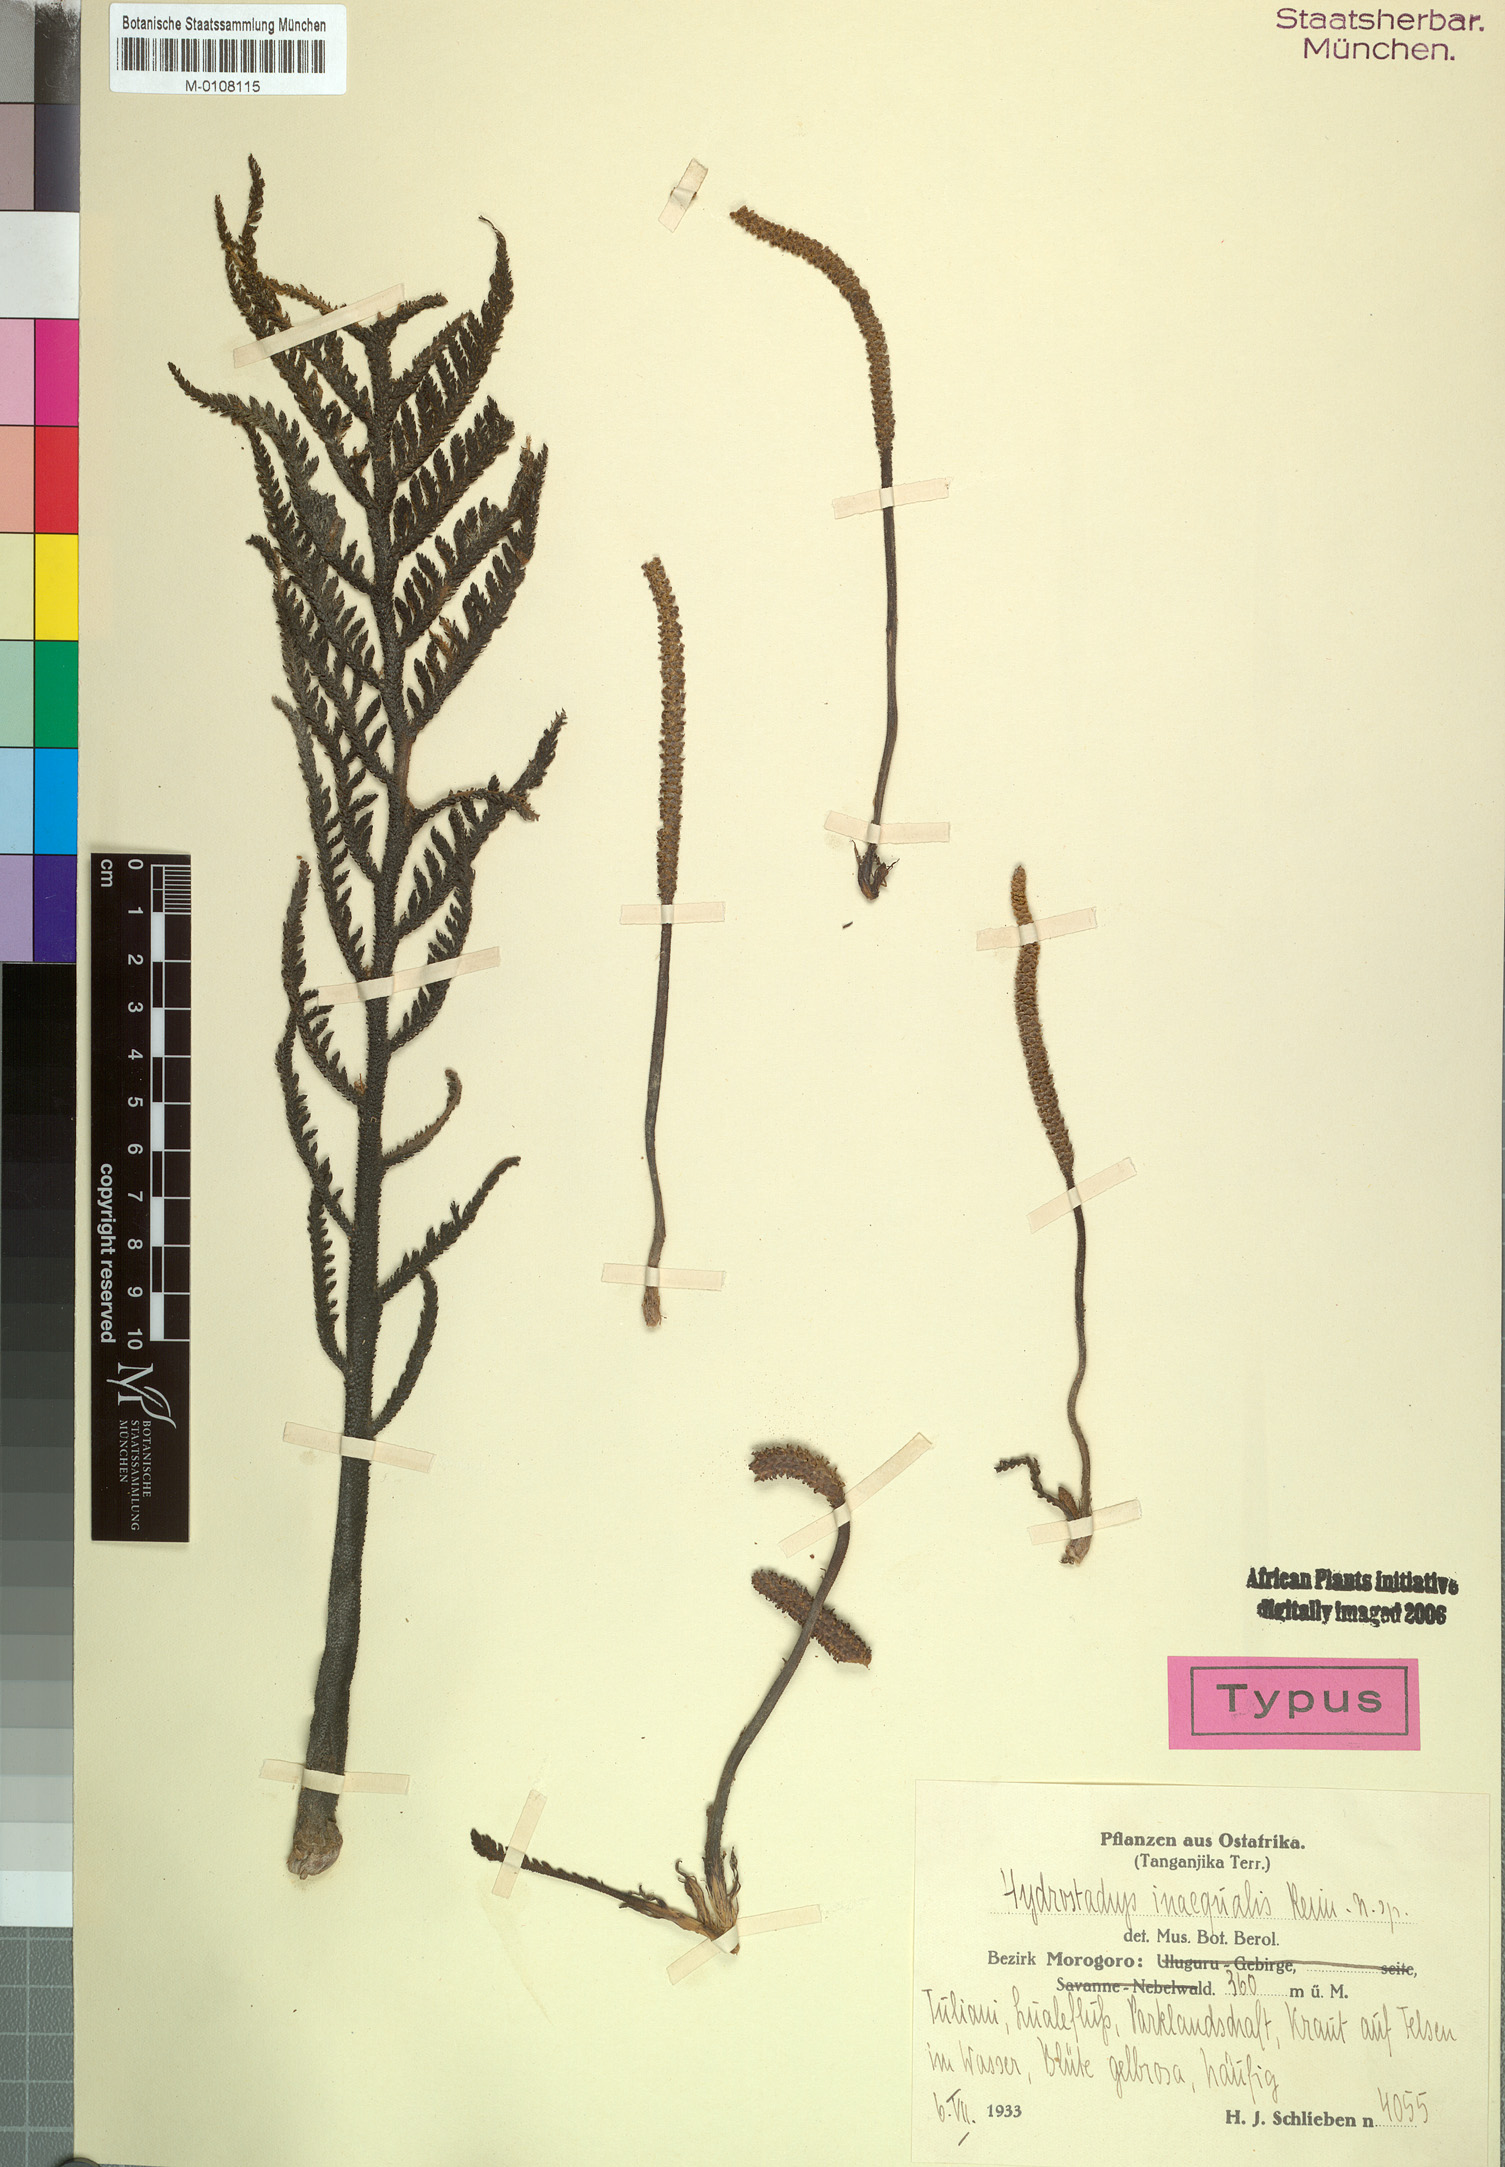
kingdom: Plantae
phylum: Tracheophyta
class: Magnoliopsida
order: Cornales
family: Hydrostachyaceae
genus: Hydrostachys
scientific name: Hydrostachys angustisecta
